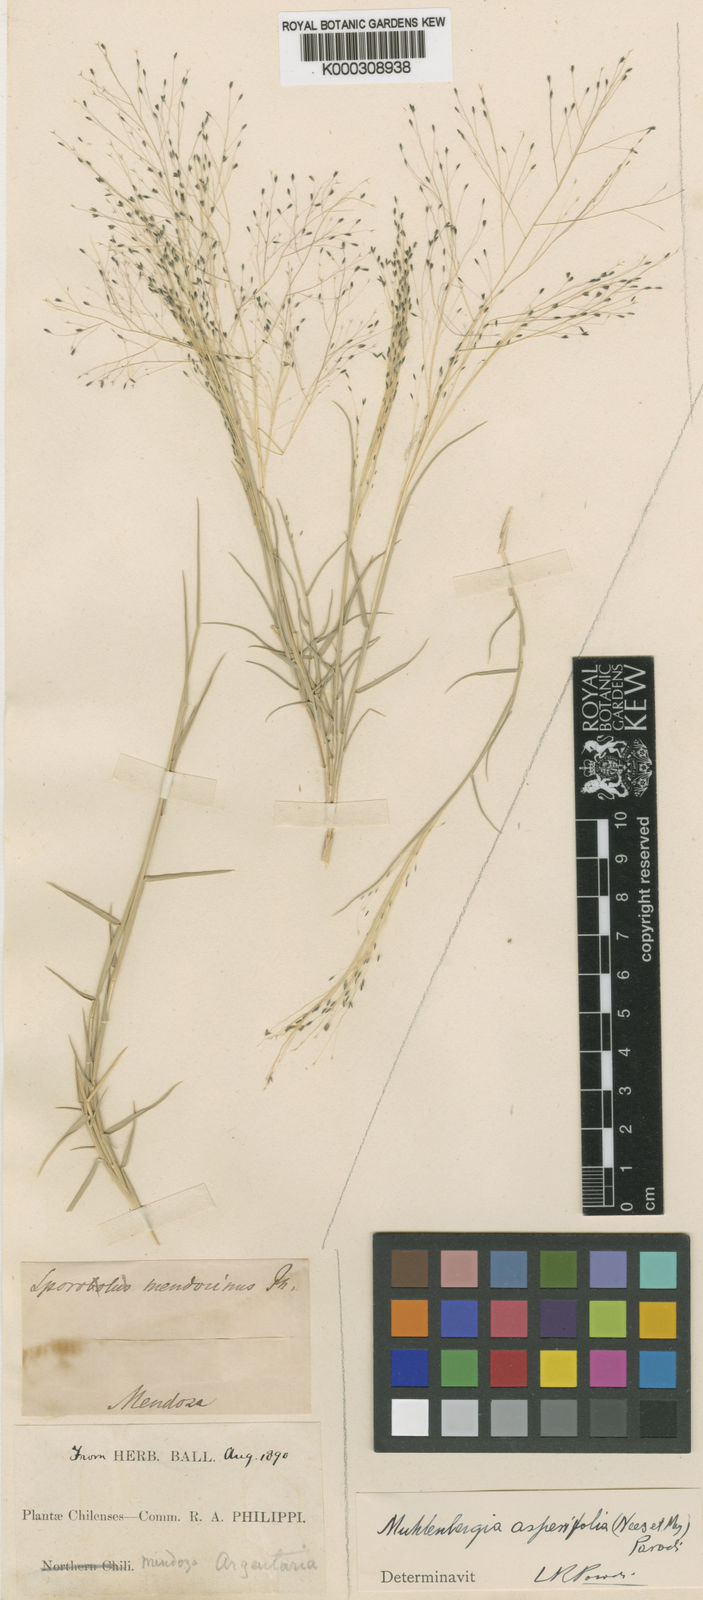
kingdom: Plantae
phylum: Tracheophyta
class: Liliopsida
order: Poales
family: Poaceae
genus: Muhlenbergia
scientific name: Muhlenbergia asperifolia
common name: Alkali muhly
